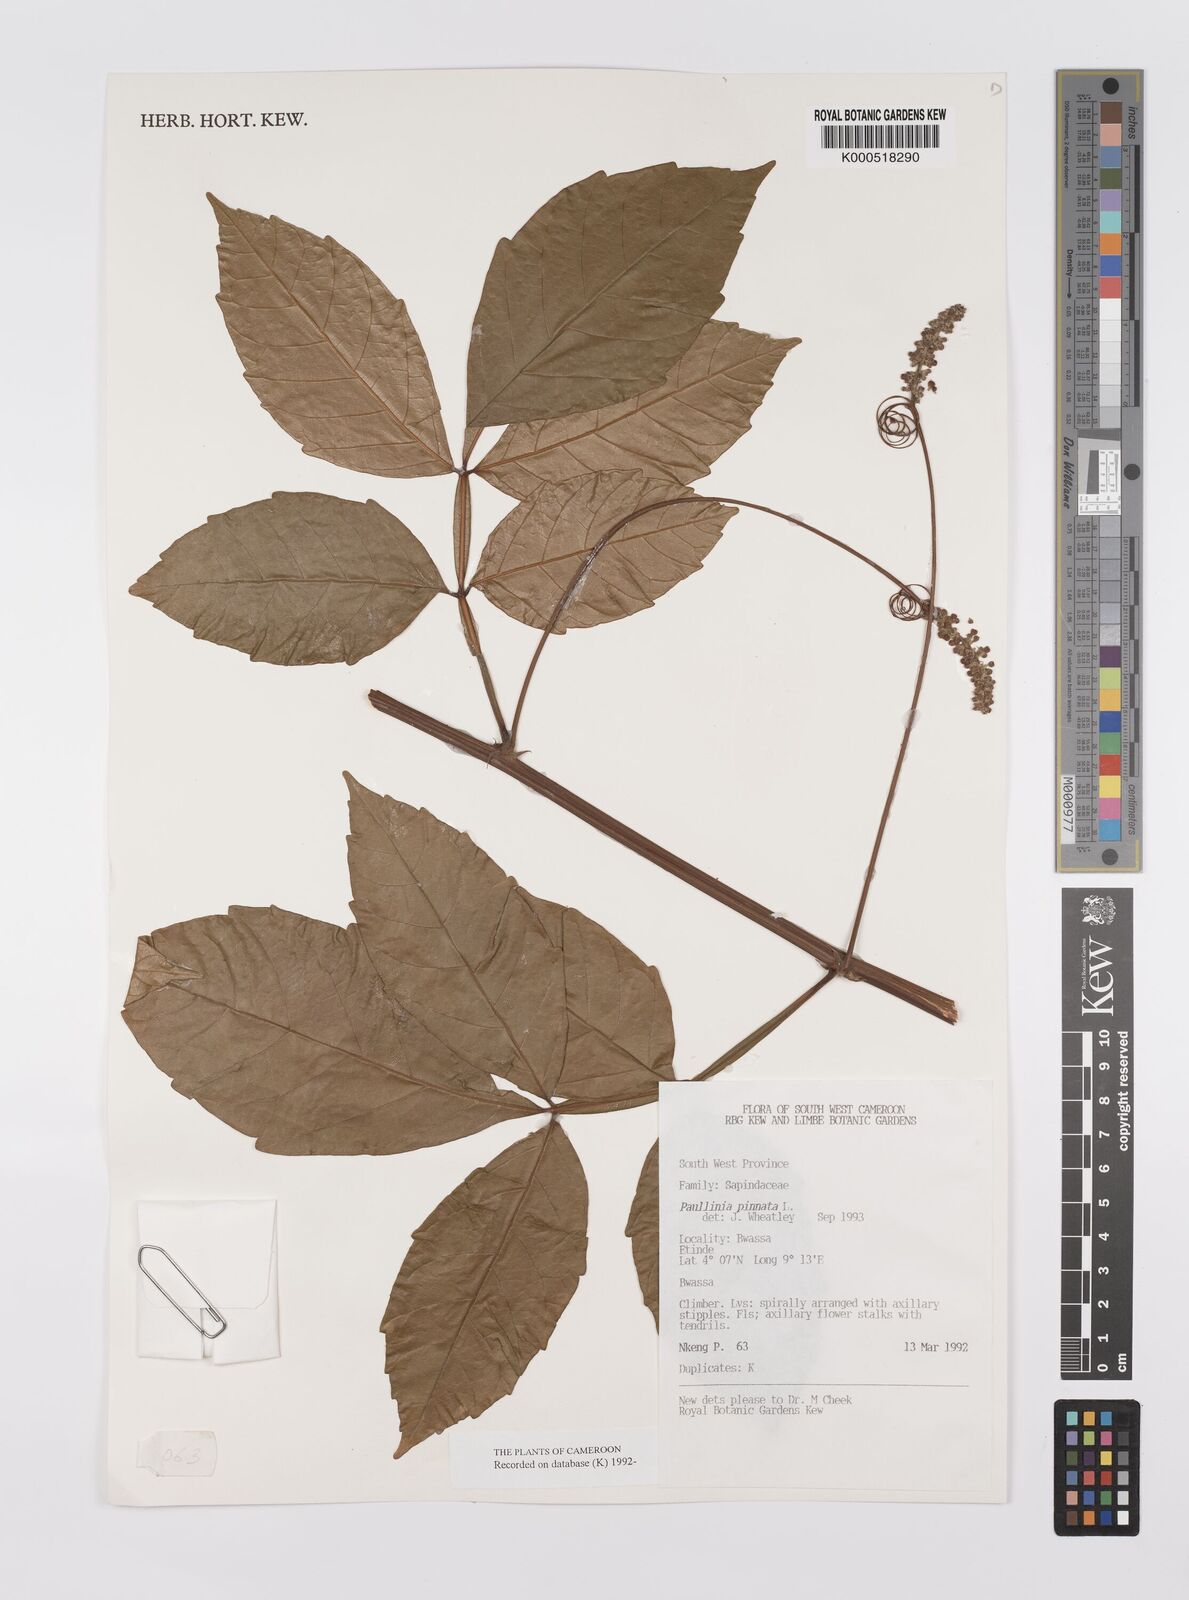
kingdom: Plantae
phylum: Tracheophyta
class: Magnoliopsida
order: Sapindales
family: Sapindaceae
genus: Paullinia
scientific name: Paullinia pinnata
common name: Barbasco
